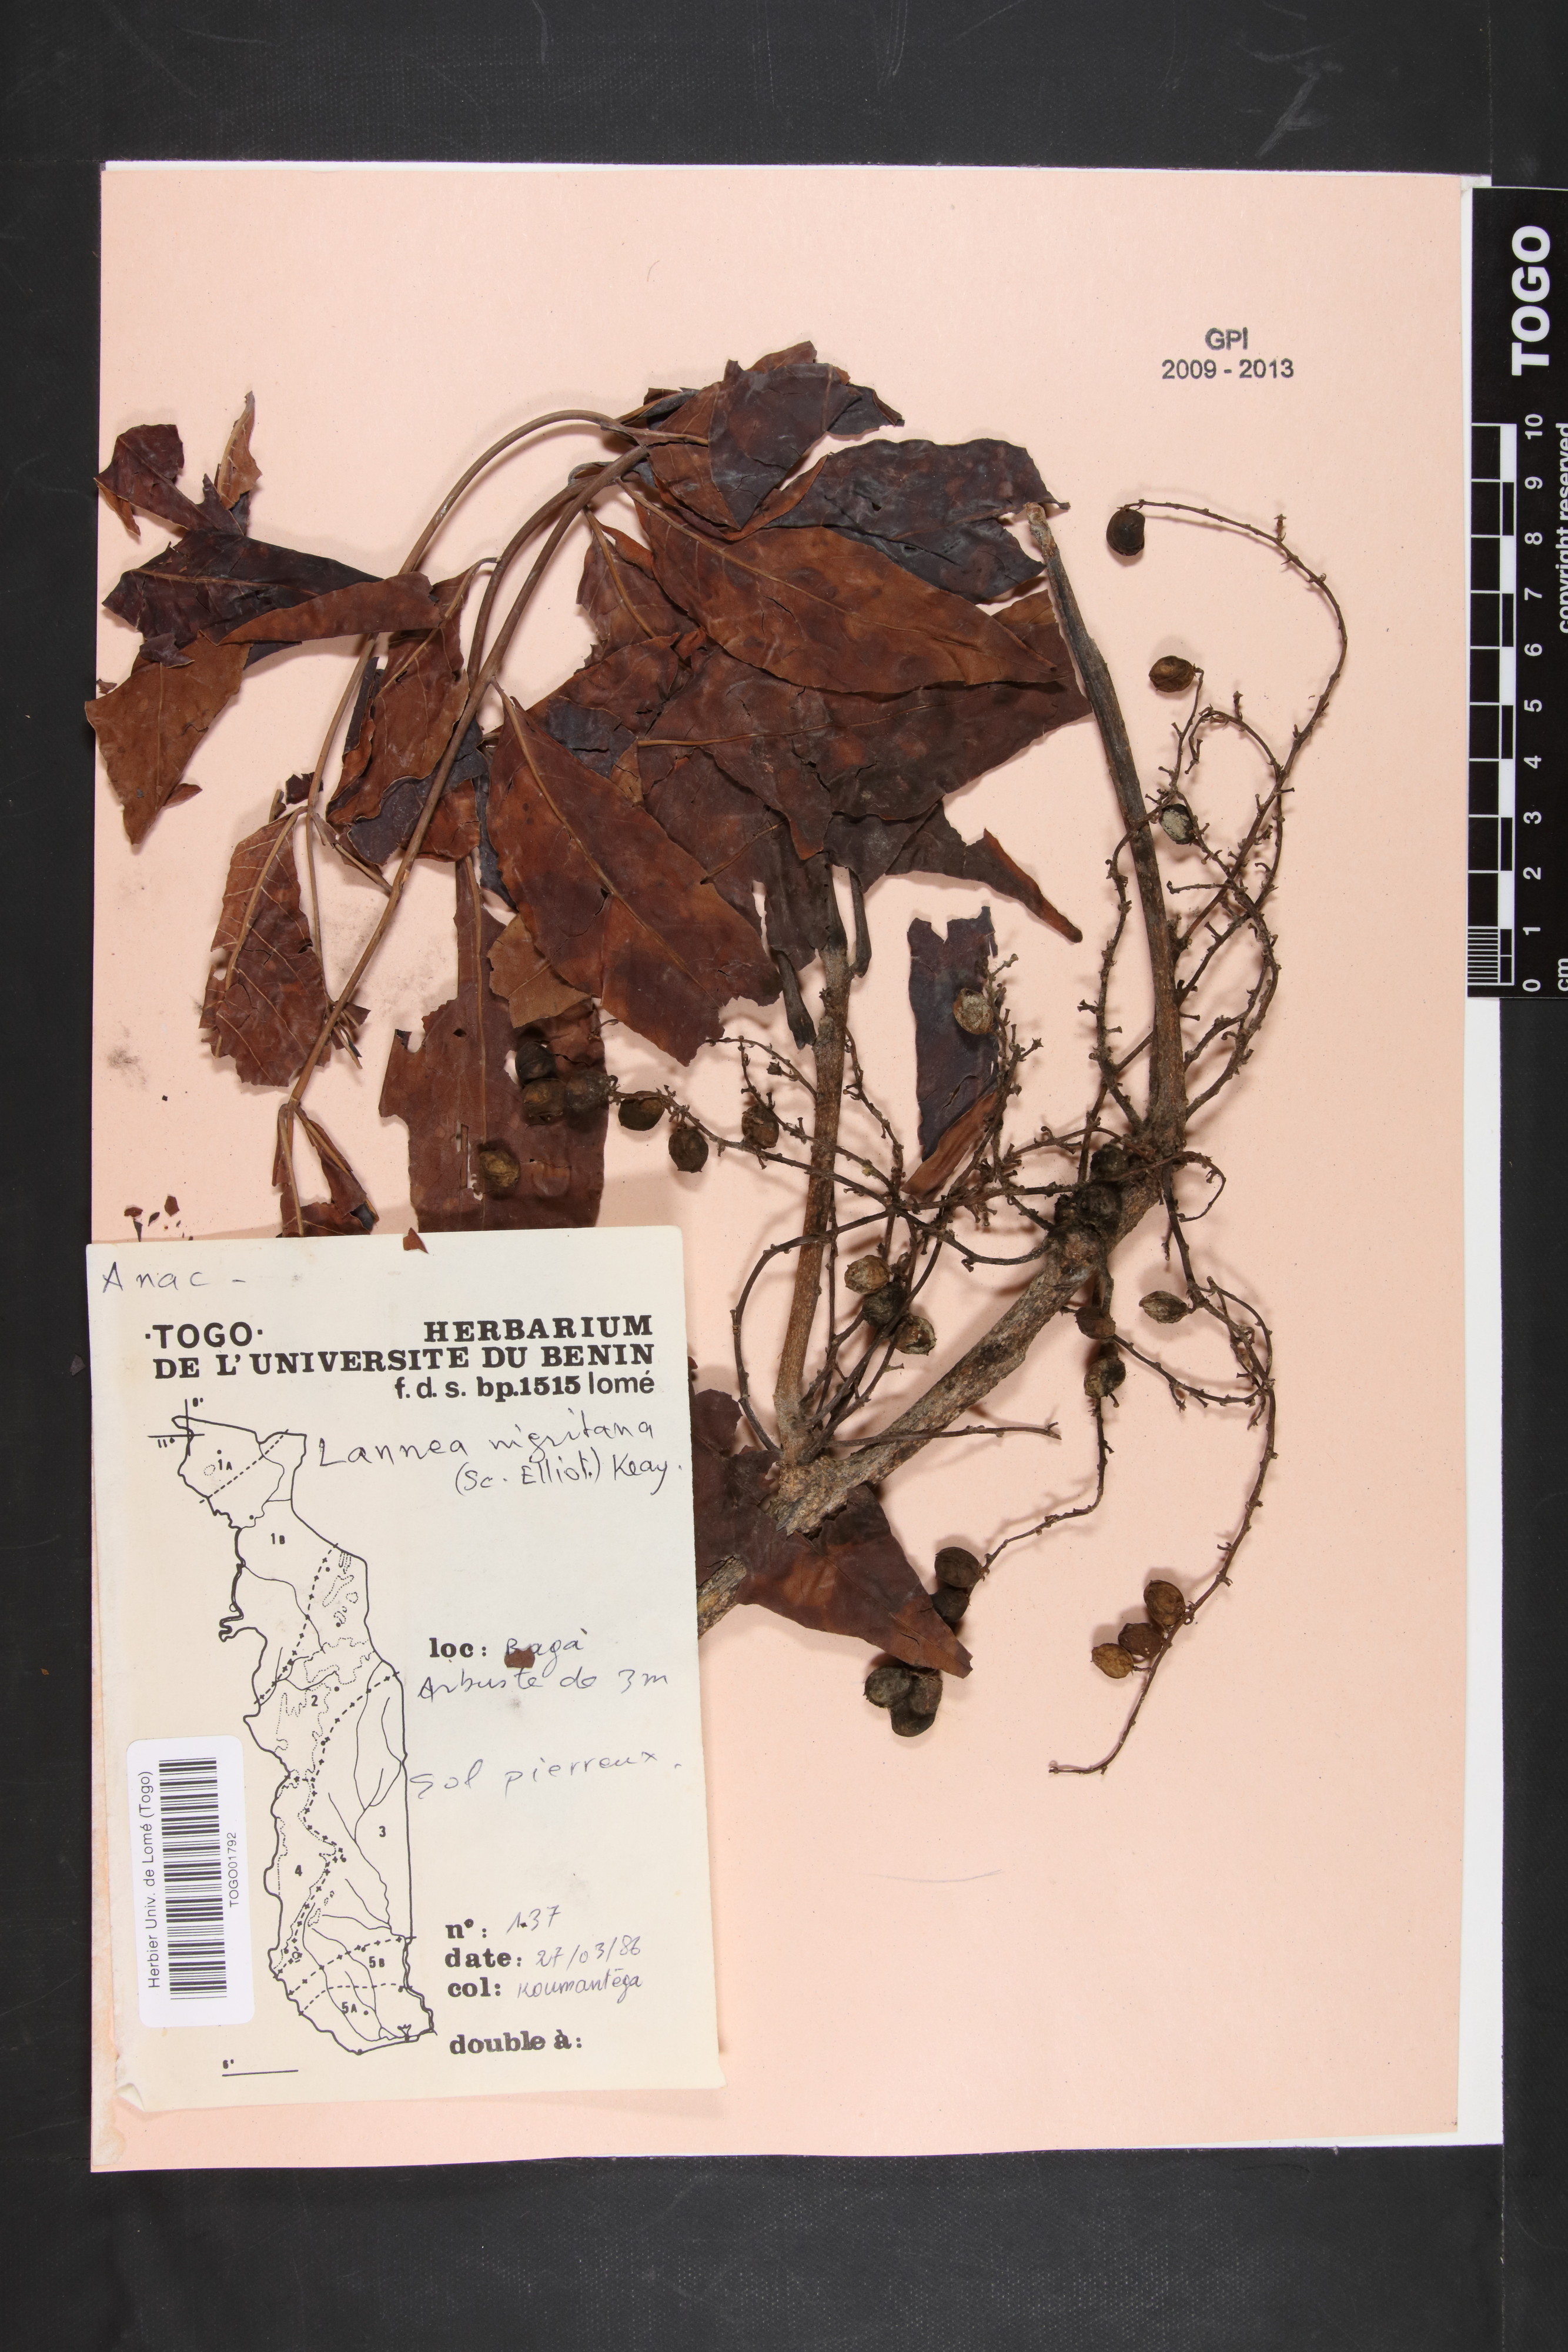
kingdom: Plantae
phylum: Tracheophyta
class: Magnoliopsida
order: Sapindales
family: Anacardiaceae
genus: Lannea
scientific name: Lannea nigritana
